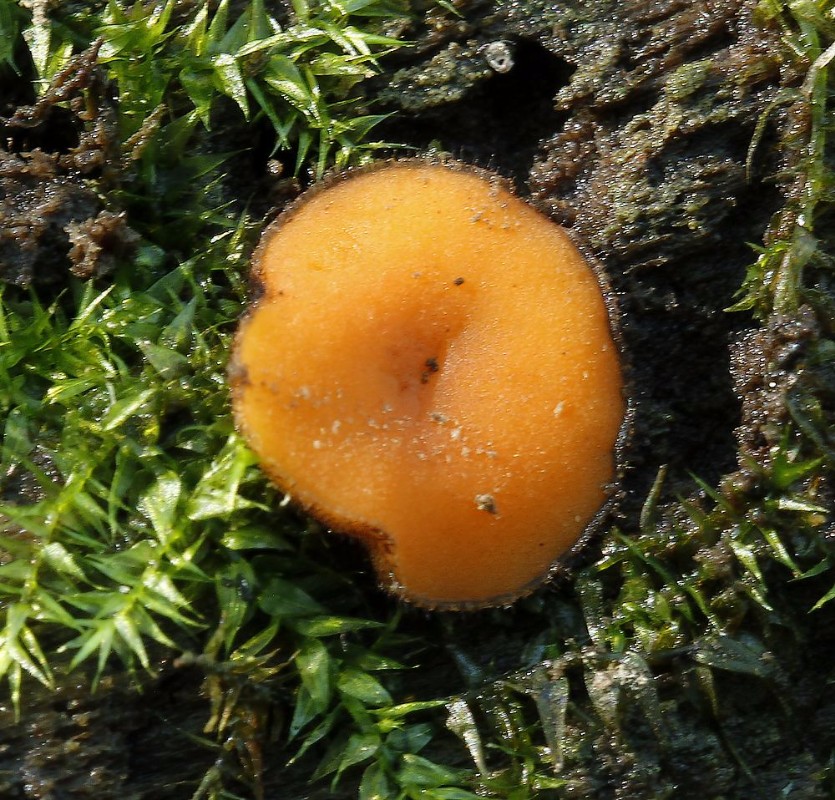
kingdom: Fungi
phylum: Ascomycota
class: Pezizomycetes
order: Pezizales
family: Pyronemataceae
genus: Scutellinia
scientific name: Scutellinia
